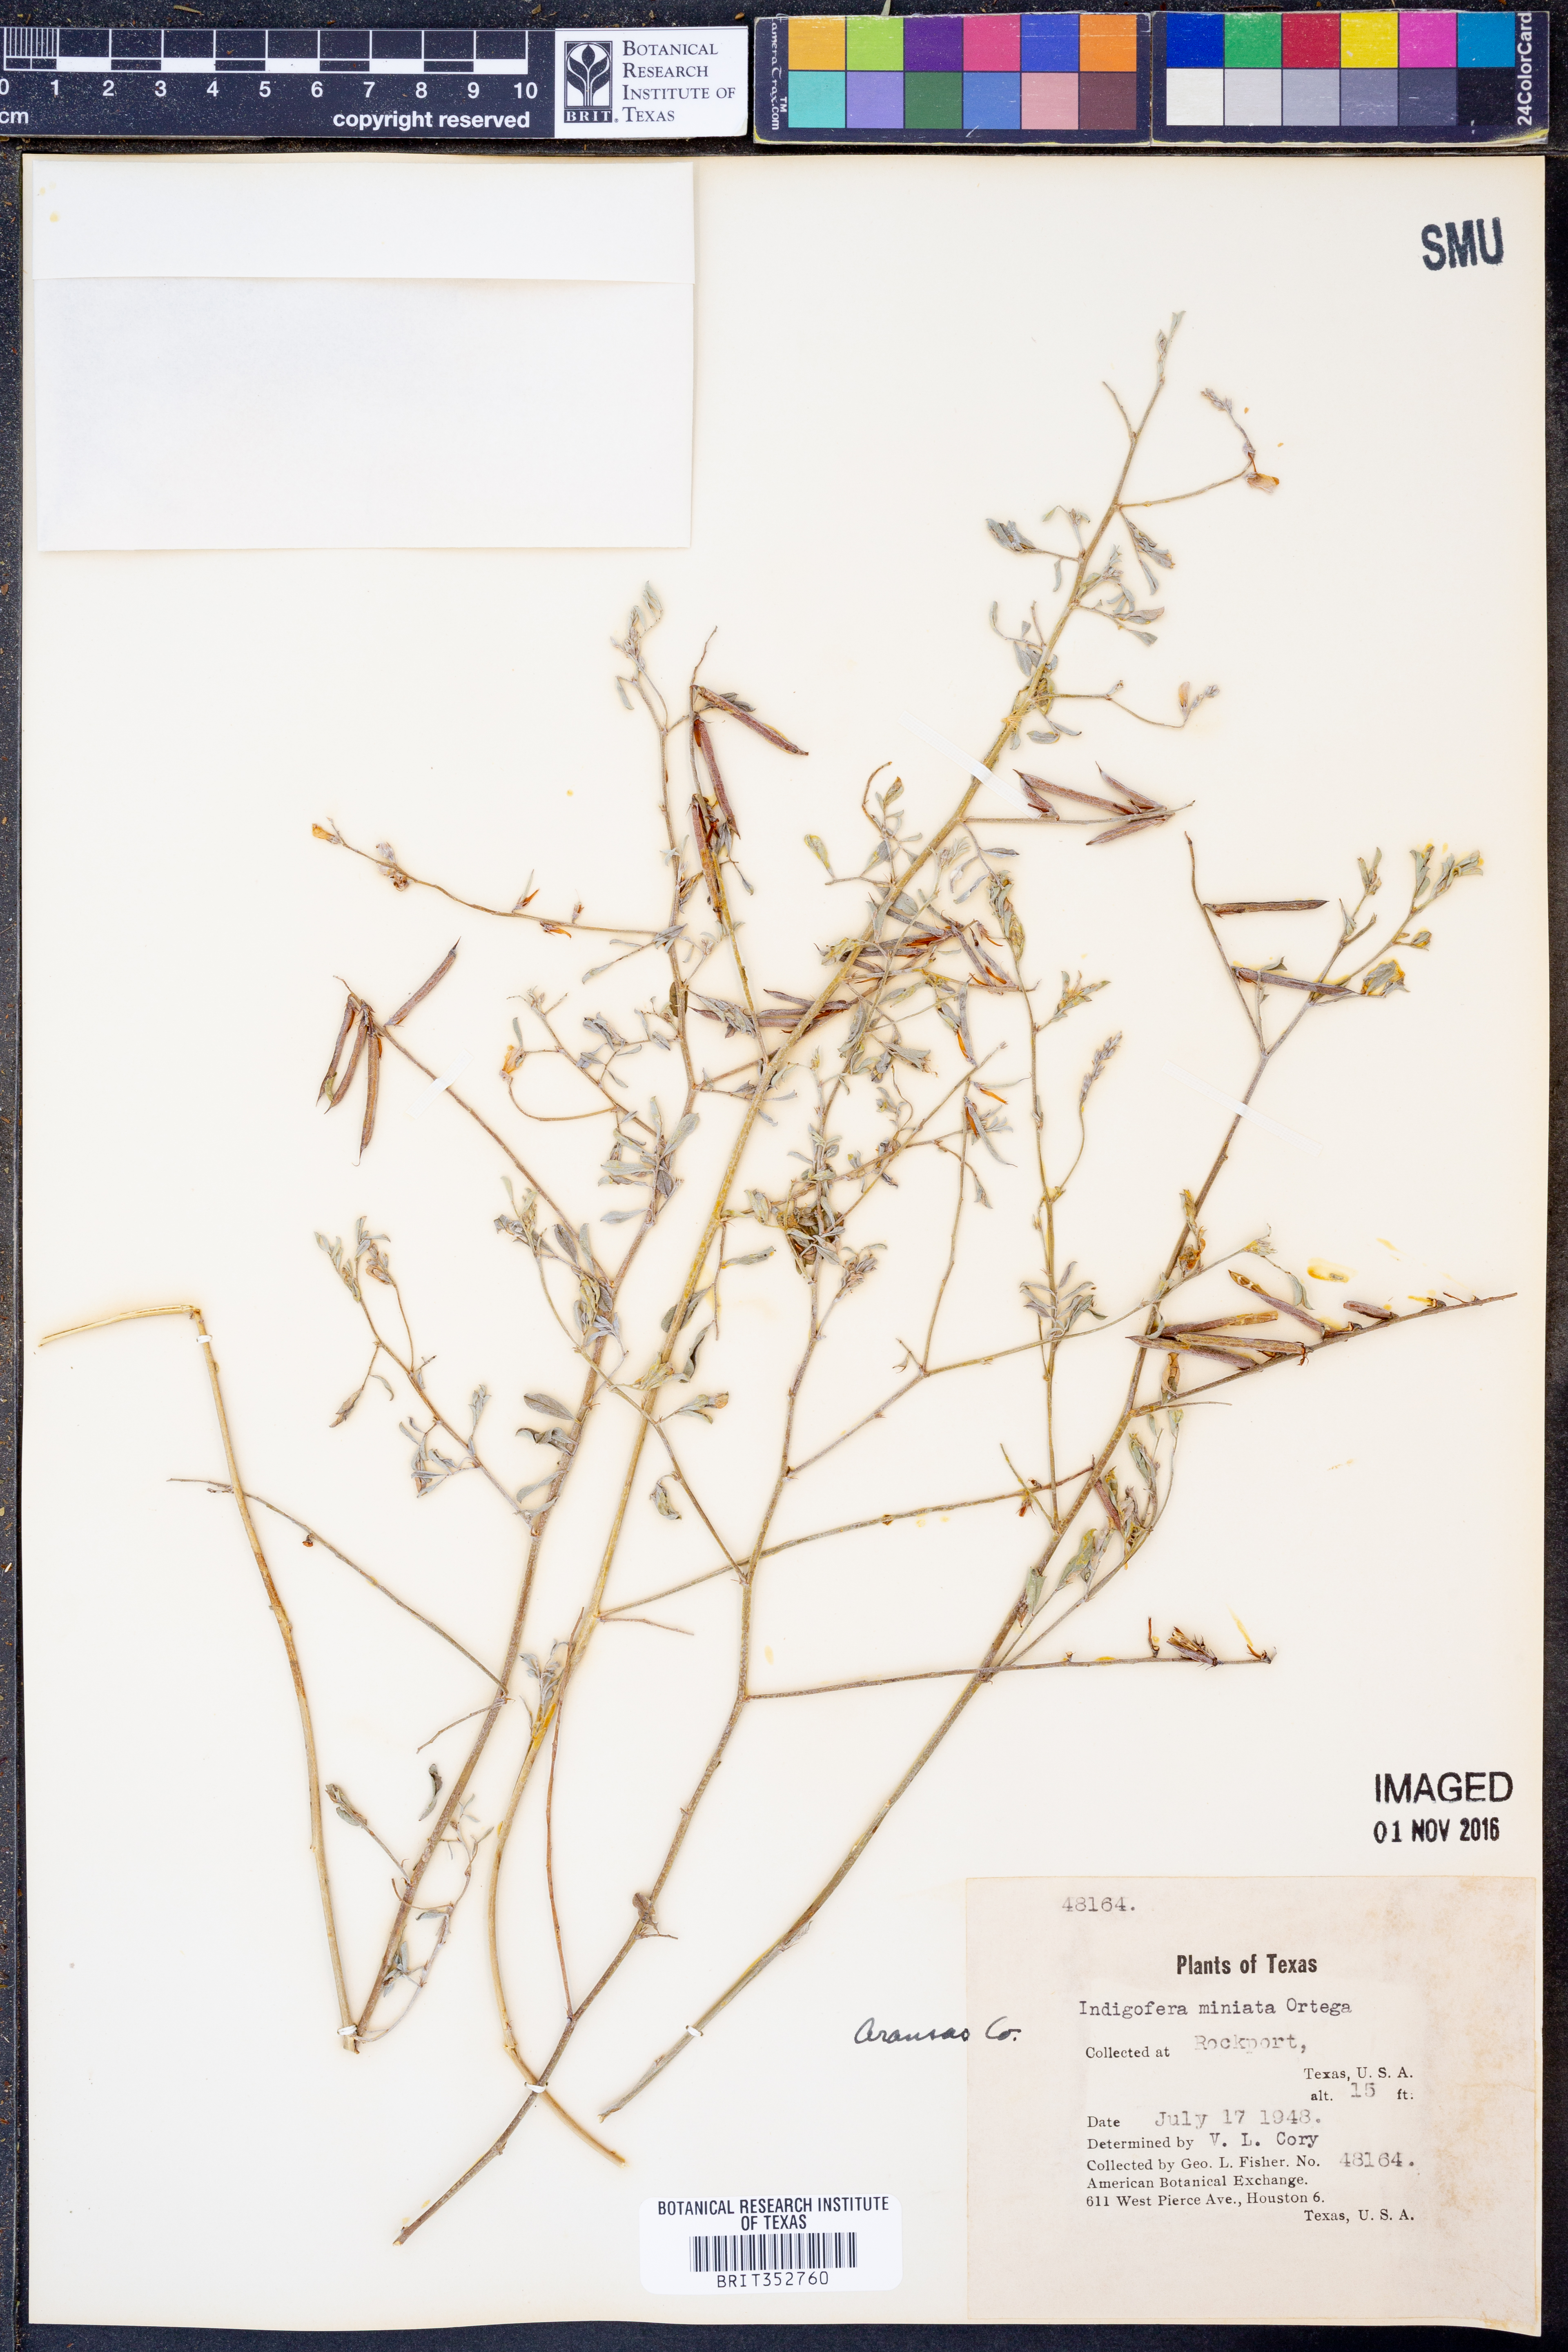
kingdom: Plantae
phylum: Tracheophyta
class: Magnoliopsida
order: Fabales
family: Fabaceae
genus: Indigofera
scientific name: Indigofera miniata
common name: Coast indigo
